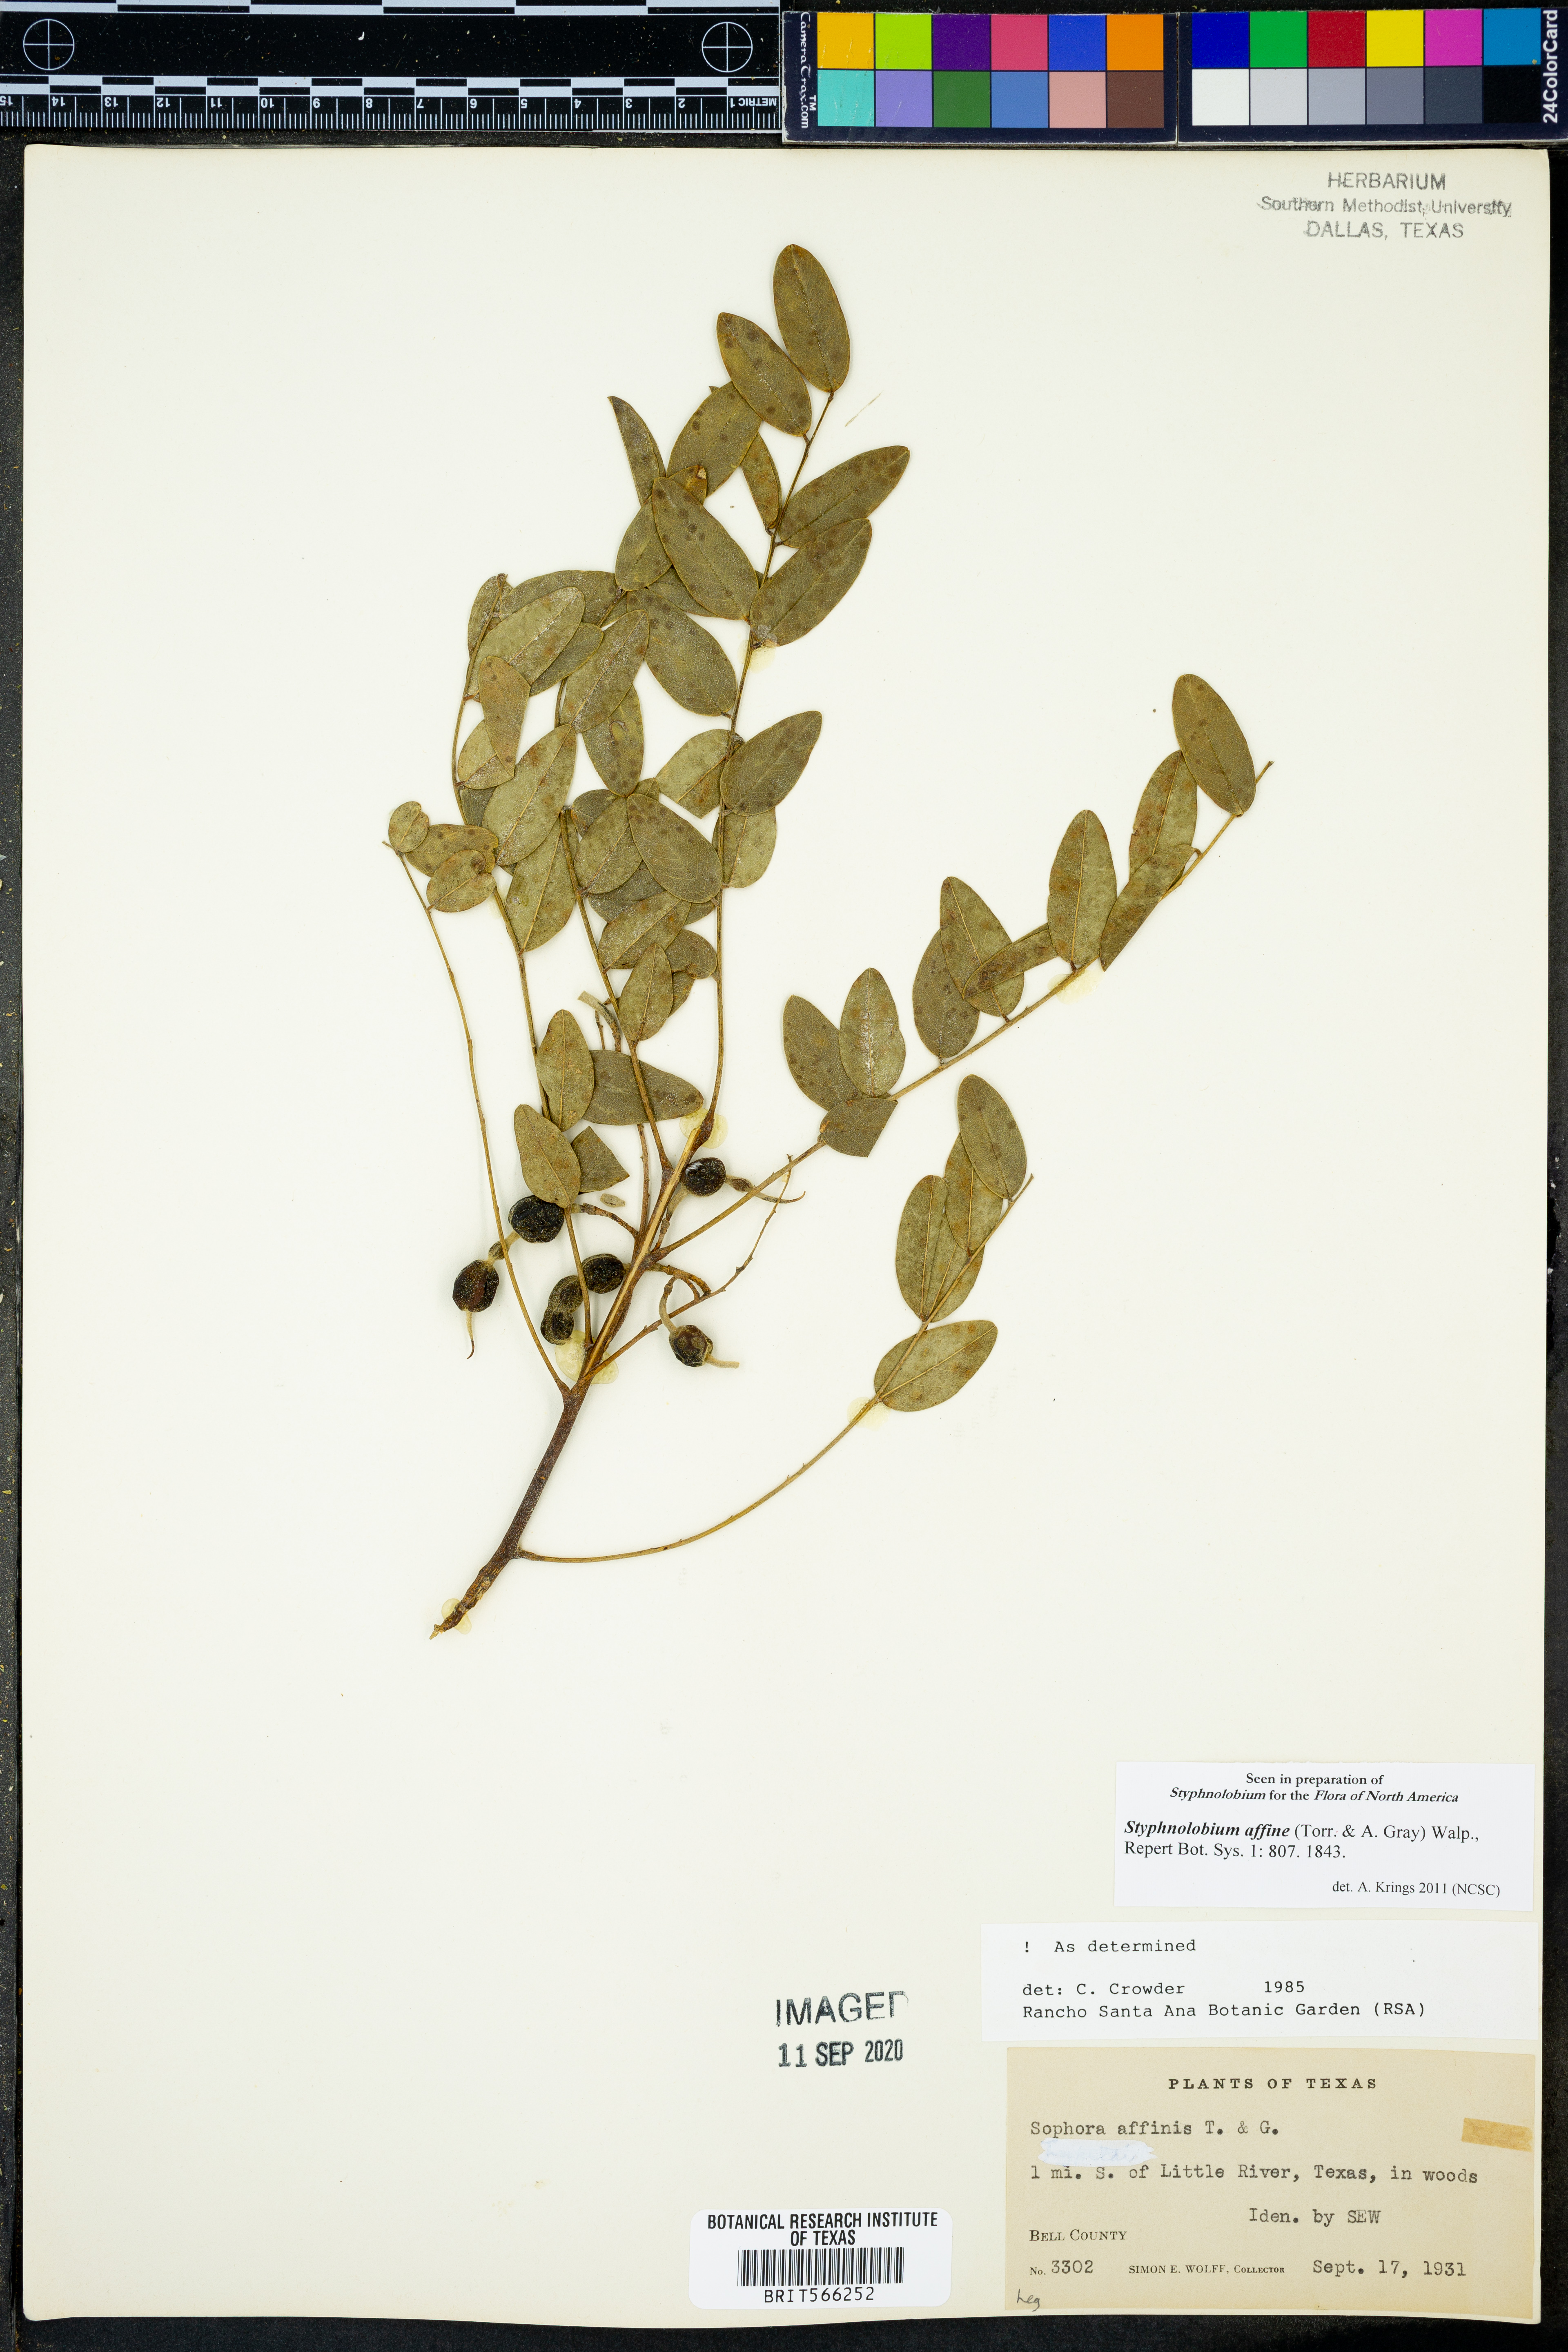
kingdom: Plantae
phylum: Tracheophyta
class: Magnoliopsida
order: Fabales
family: Fabaceae
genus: Styphnolobium
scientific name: Styphnolobium affine
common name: Texas sophora
